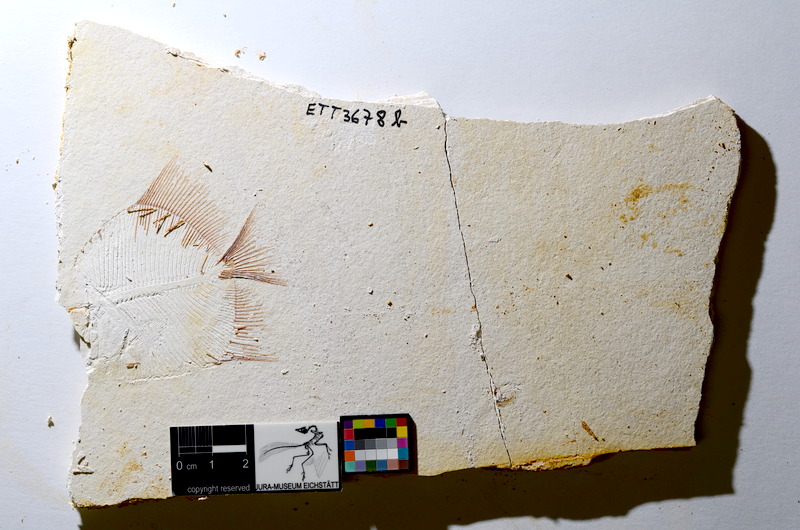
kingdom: Animalia
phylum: Chordata
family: Pycnodontidae
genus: Turbomesodon
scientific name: Turbomesodon relegans
